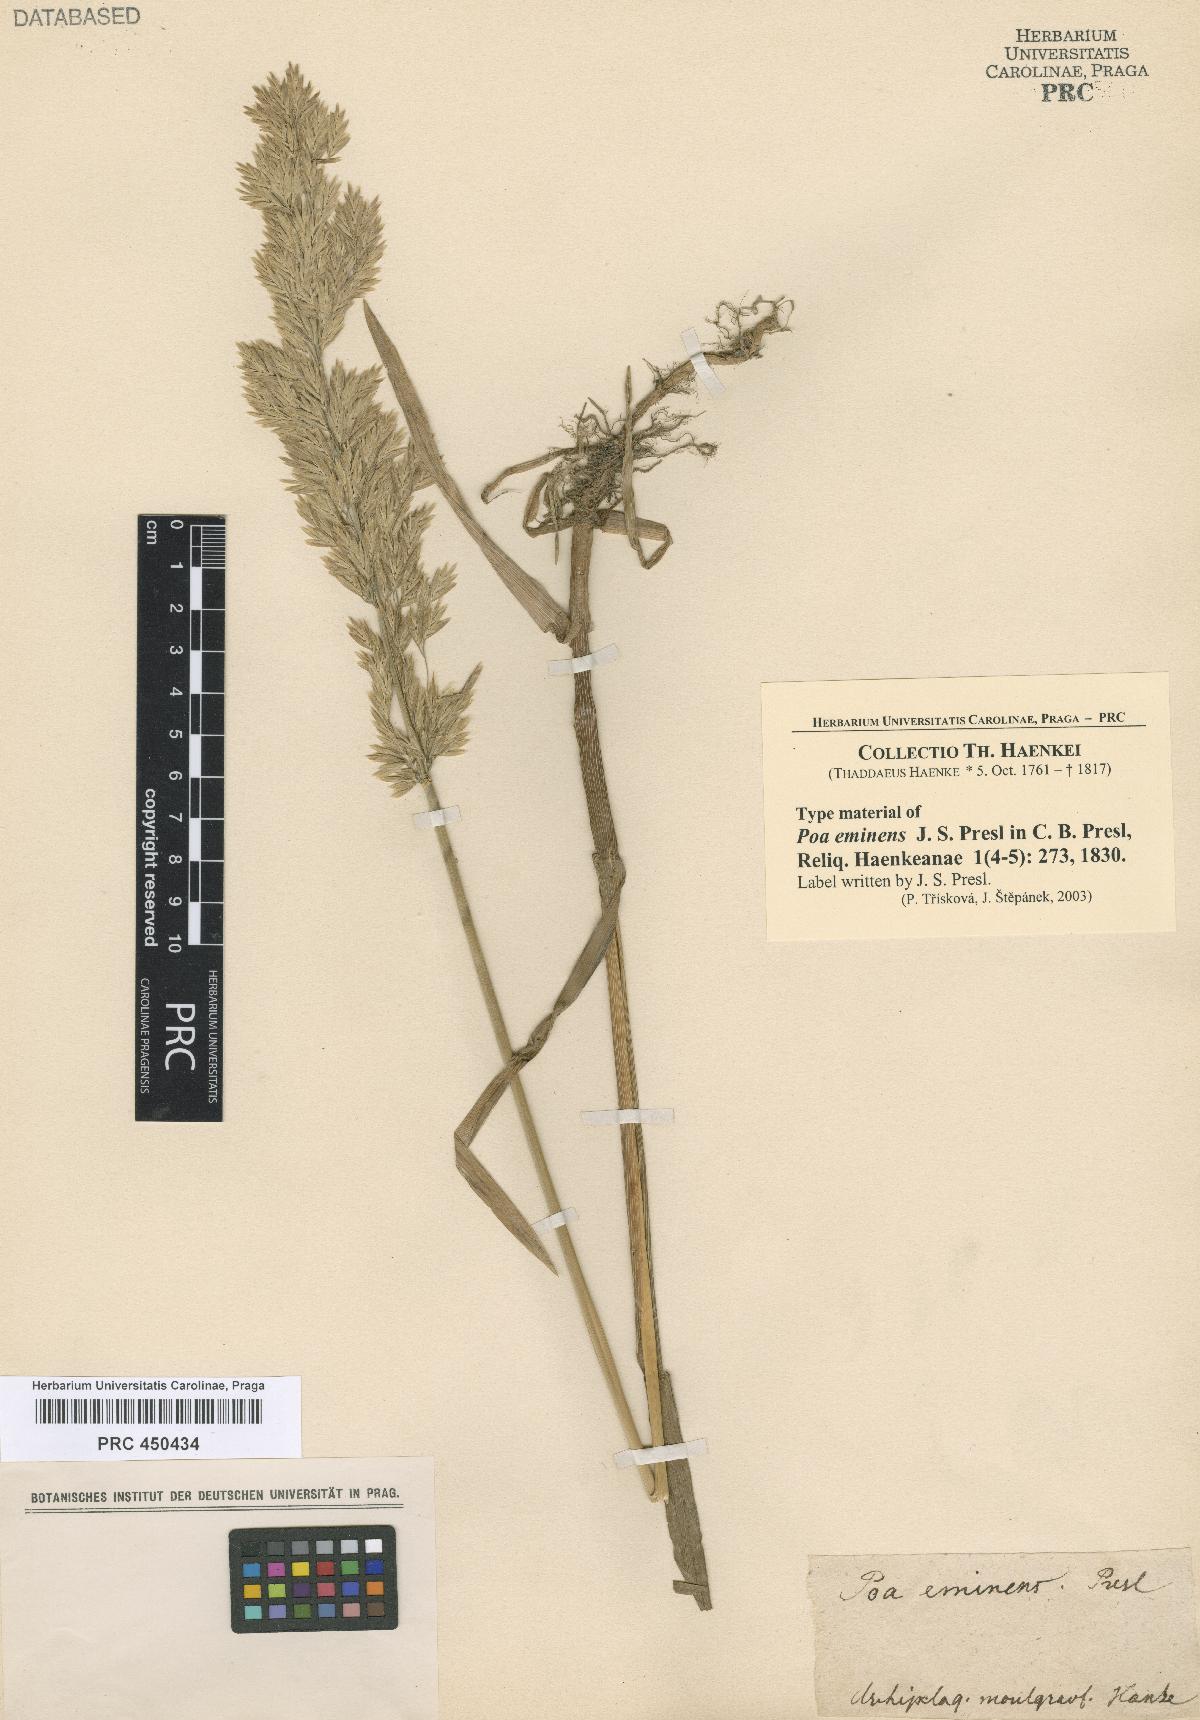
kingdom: Plantae
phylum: Tracheophyta
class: Liliopsida
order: Poales
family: Poaceae
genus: Arctopoa
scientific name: Arctopoa eminens
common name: Eminent bluegrass
